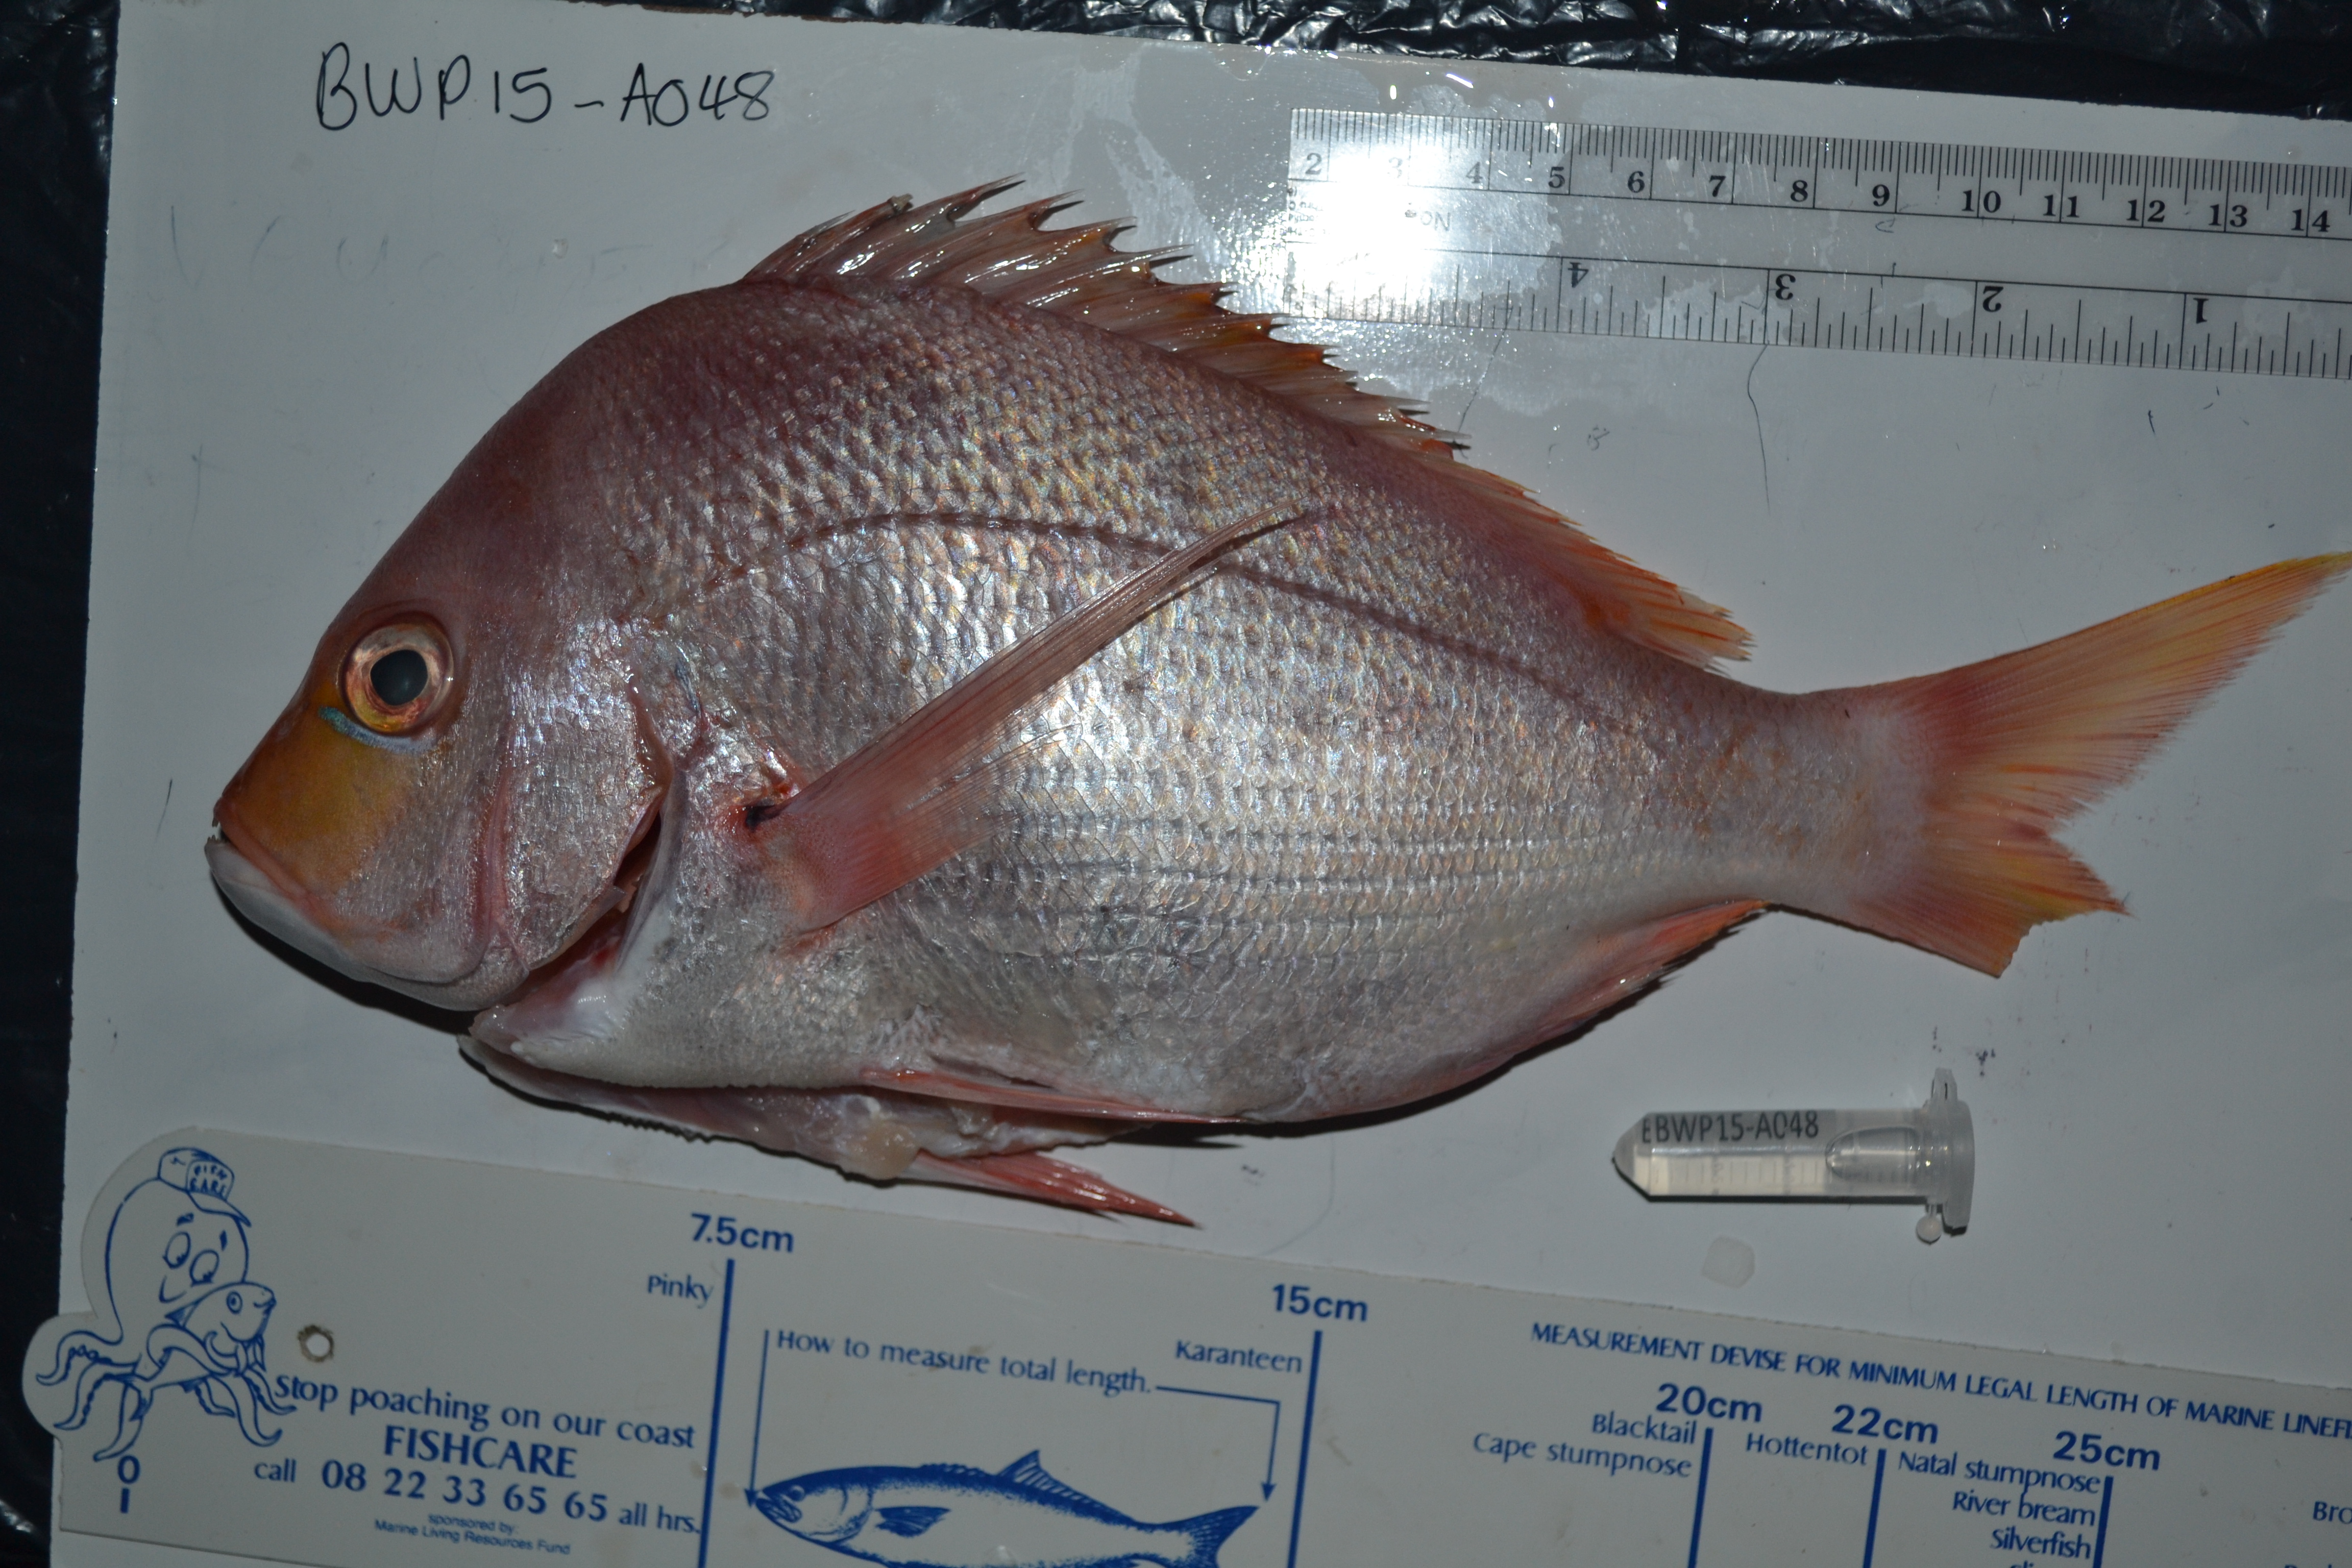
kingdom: Animalia
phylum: Chordata
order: Perciformes
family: Sparidae
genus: Chrysoblephus
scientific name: Chrysoblephus puniceus
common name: Slinger seabream
